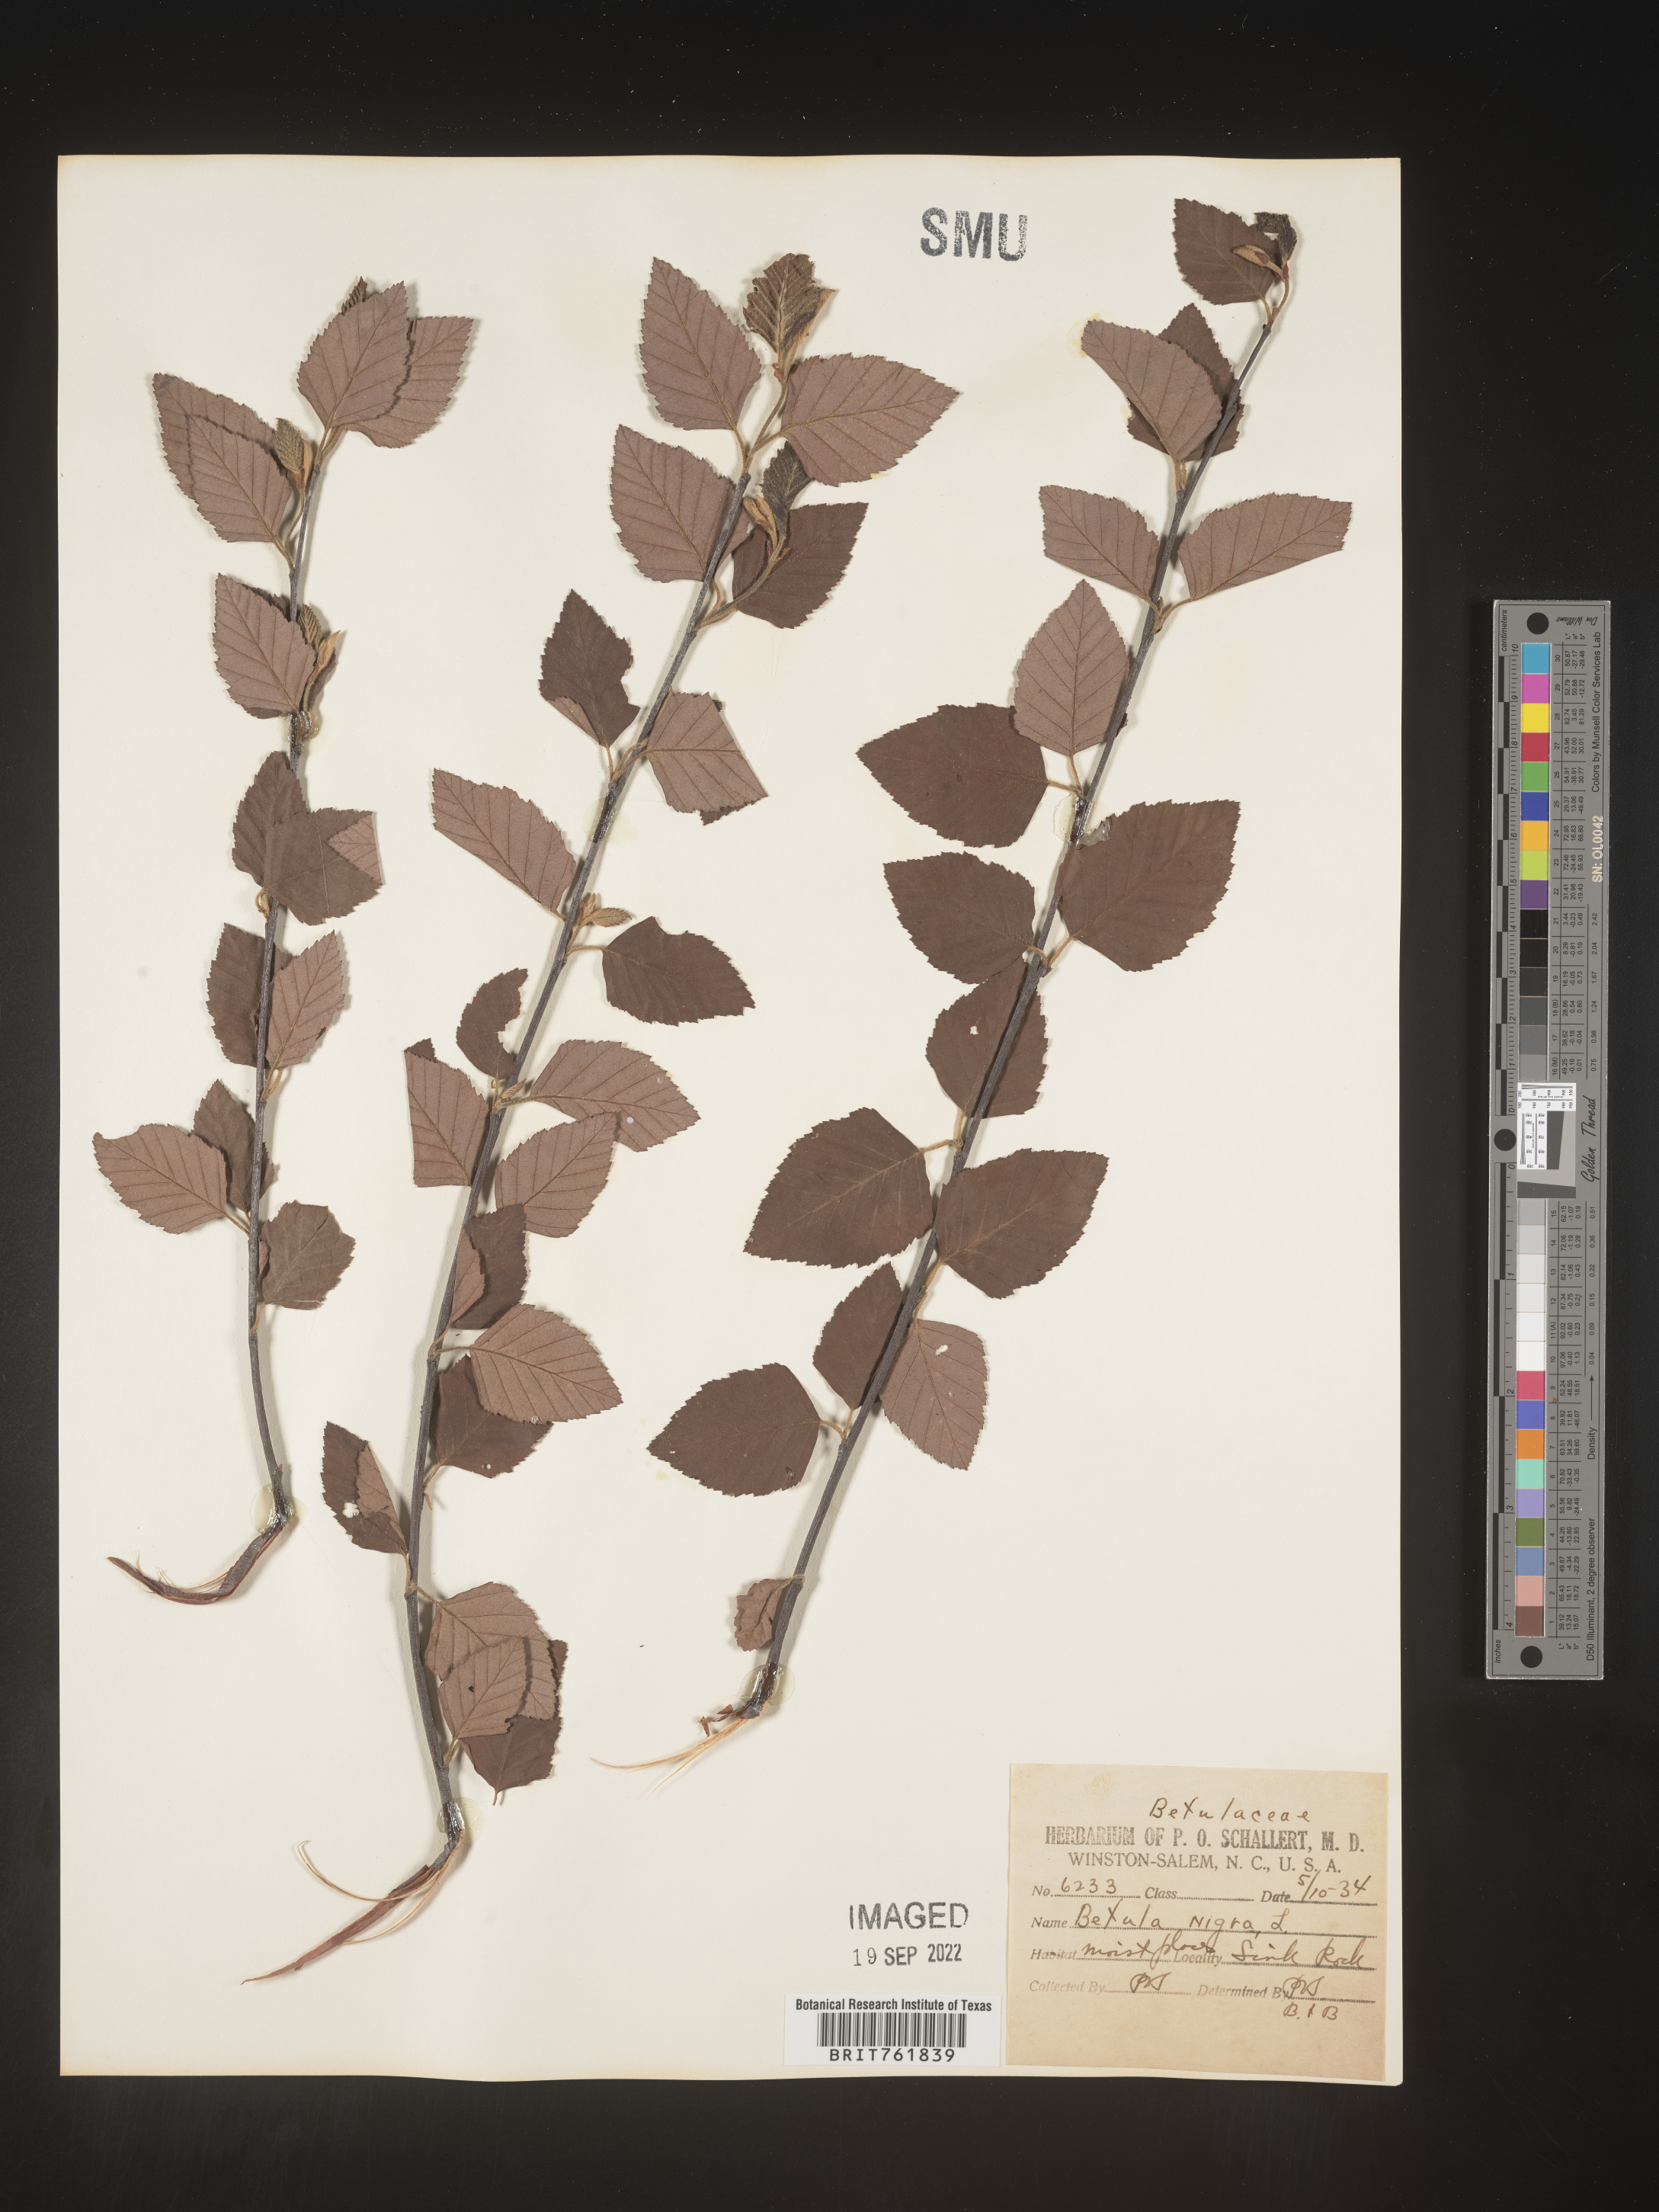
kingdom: Plantae
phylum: Tracheophyta
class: Magnoliopsida
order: Fagales
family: Betulaceae
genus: Betula
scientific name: Betula nigra
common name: Black birch
